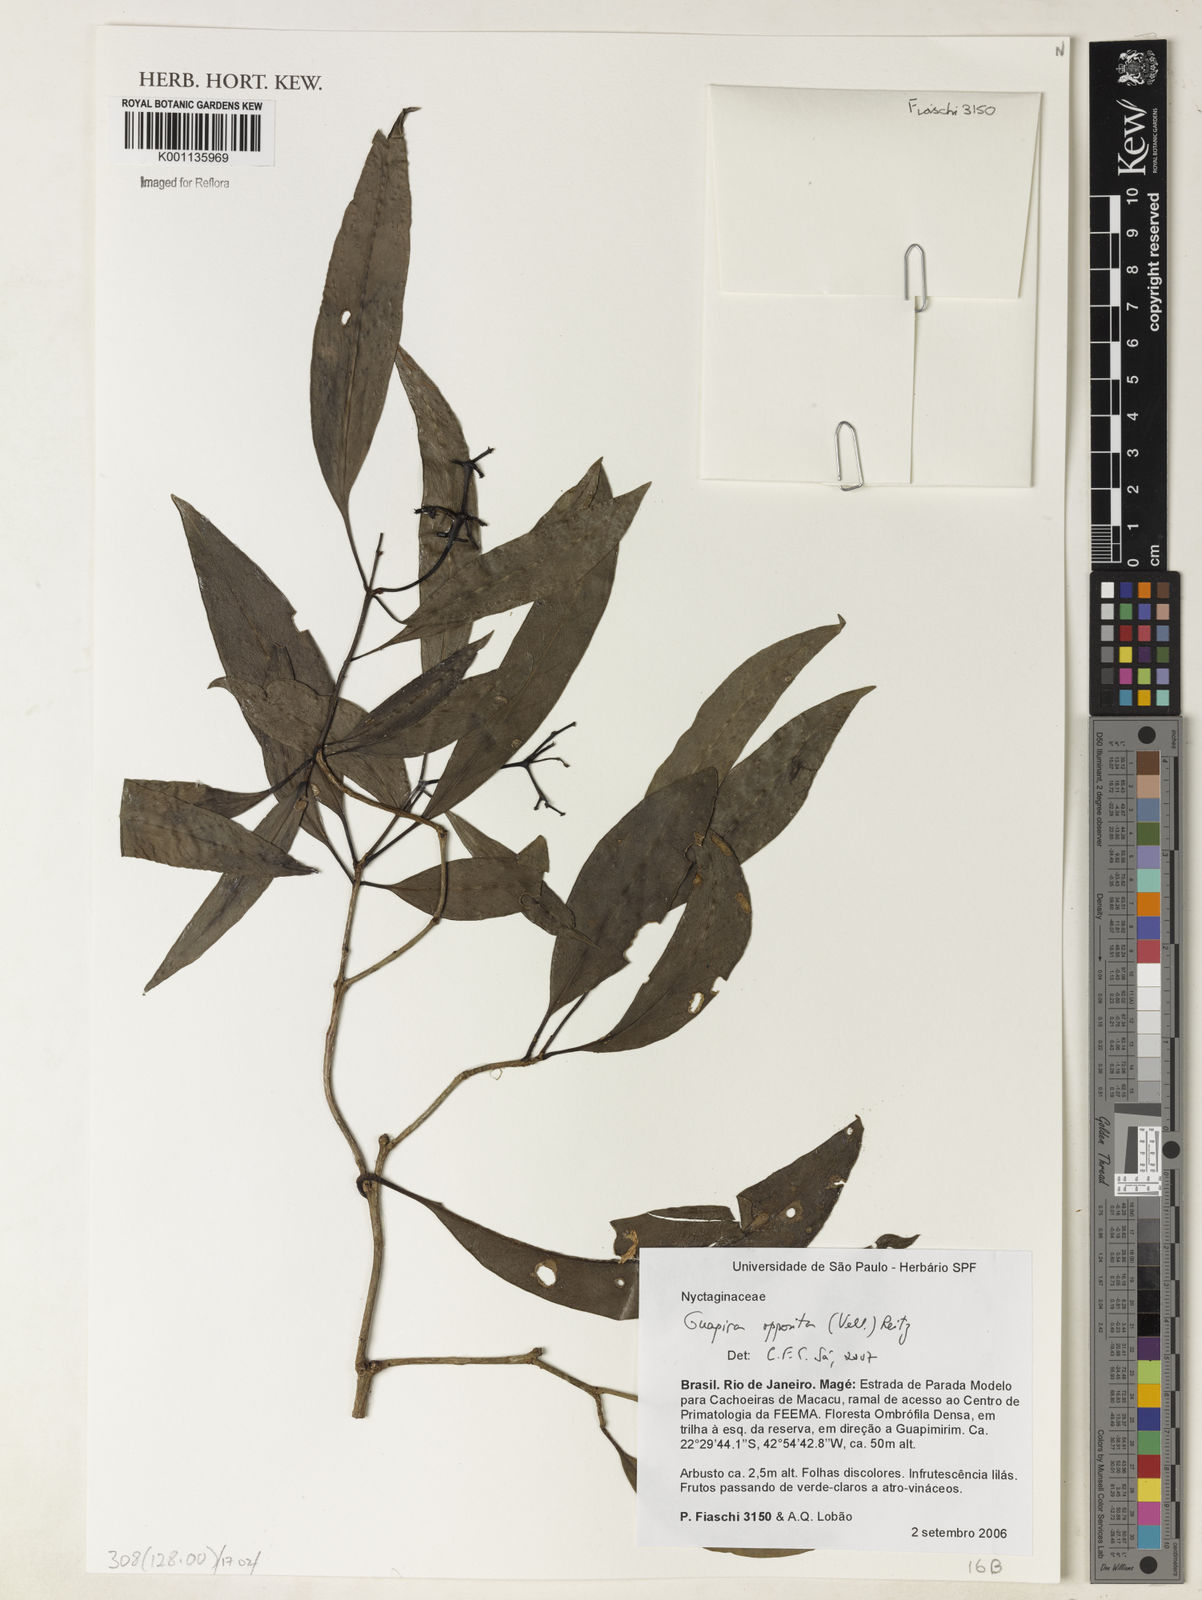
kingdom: Plantae
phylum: Tracheophyta
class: Magnoliopsida
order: Caryophyllales
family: Nyctaginaceae
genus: Guapira
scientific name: Guapira opposita
